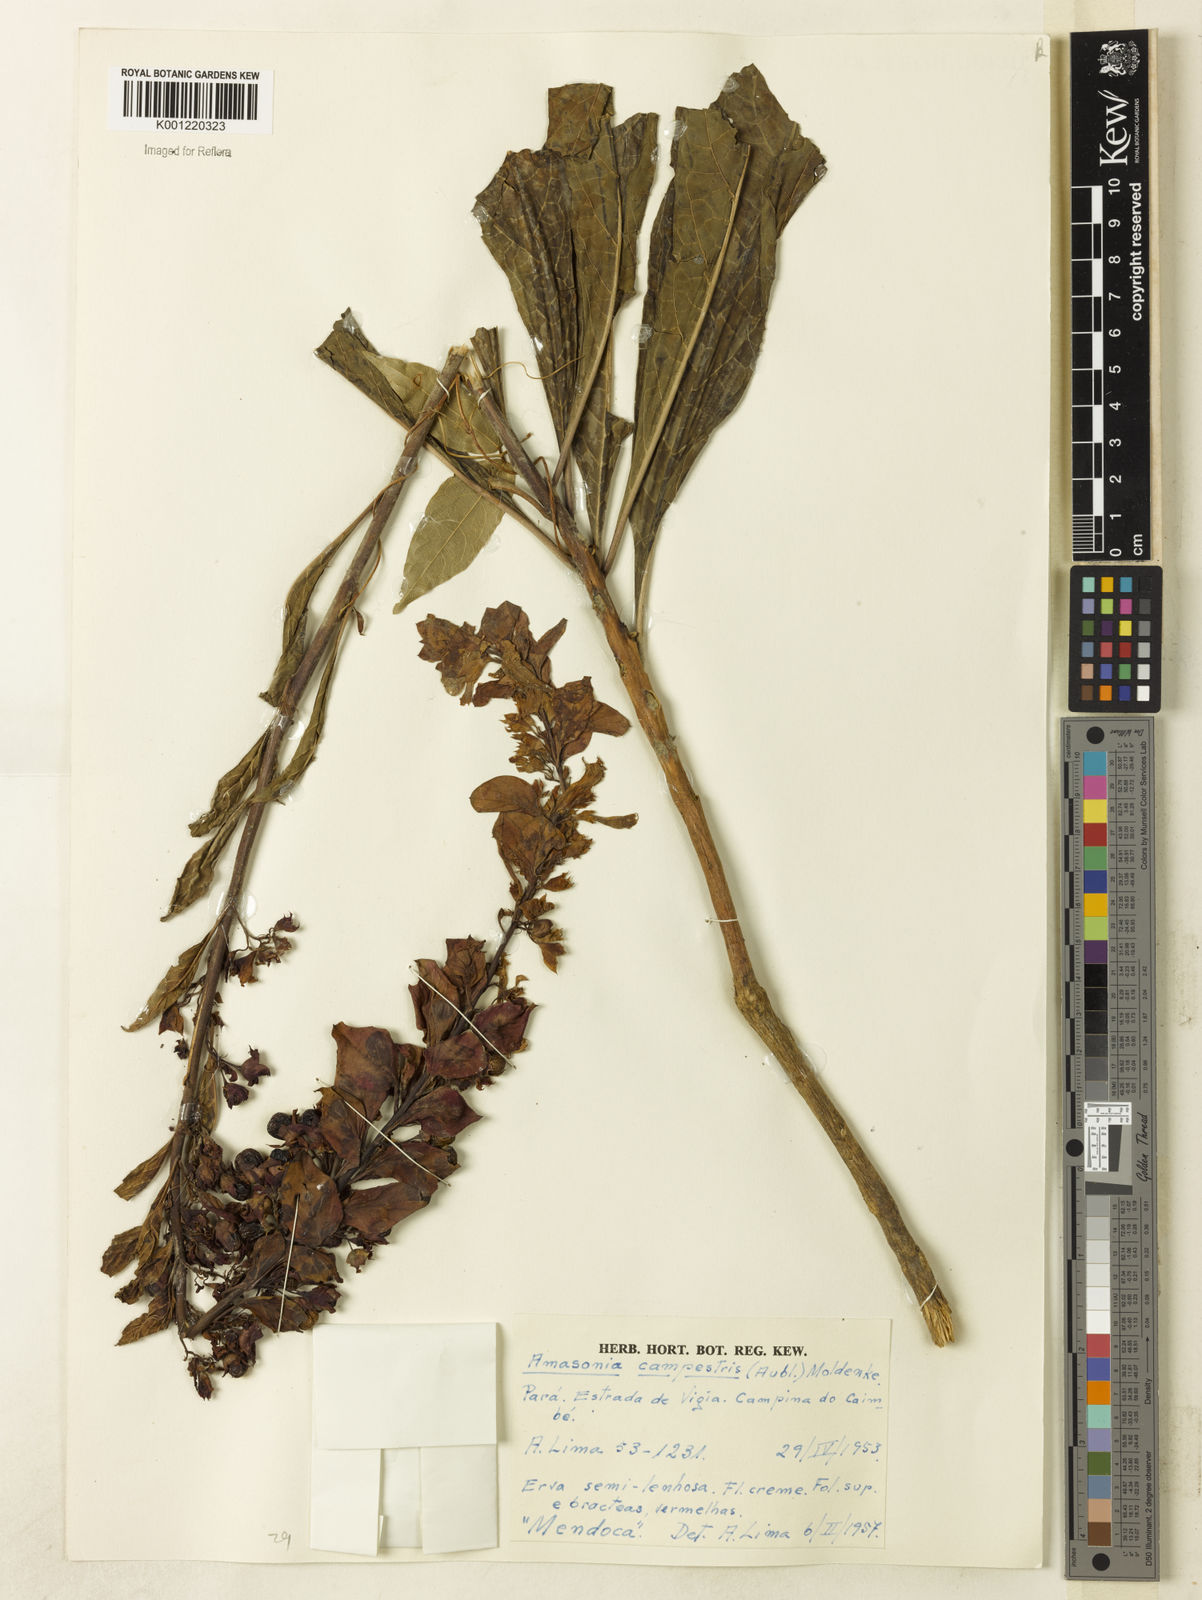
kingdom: Plantae
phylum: Tracheophyta
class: Magnoliopsida
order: Lamiales
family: Lamiaceae
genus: Amasonia
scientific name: Amasonia campestris
